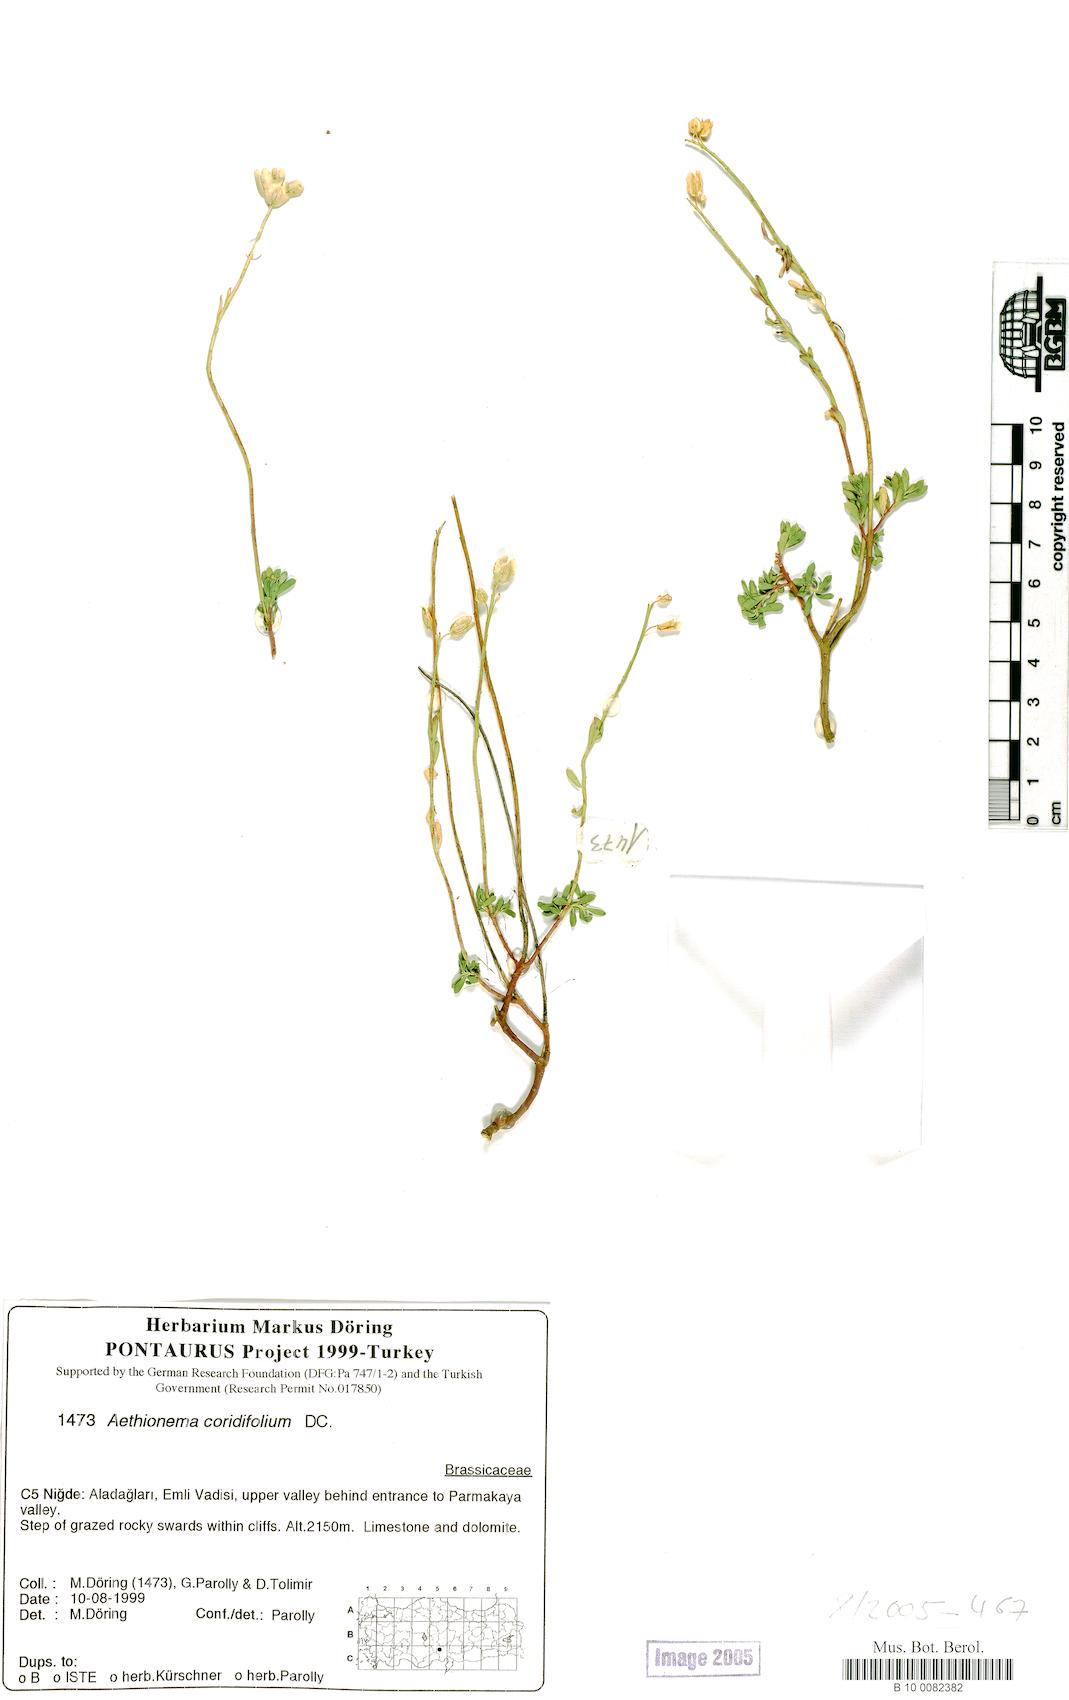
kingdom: Plantae
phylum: Tracheophyta
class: Magnoliopsida
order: Brassicales
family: Brassicaceae
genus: Aethionema
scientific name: Aethionema coridifolium
